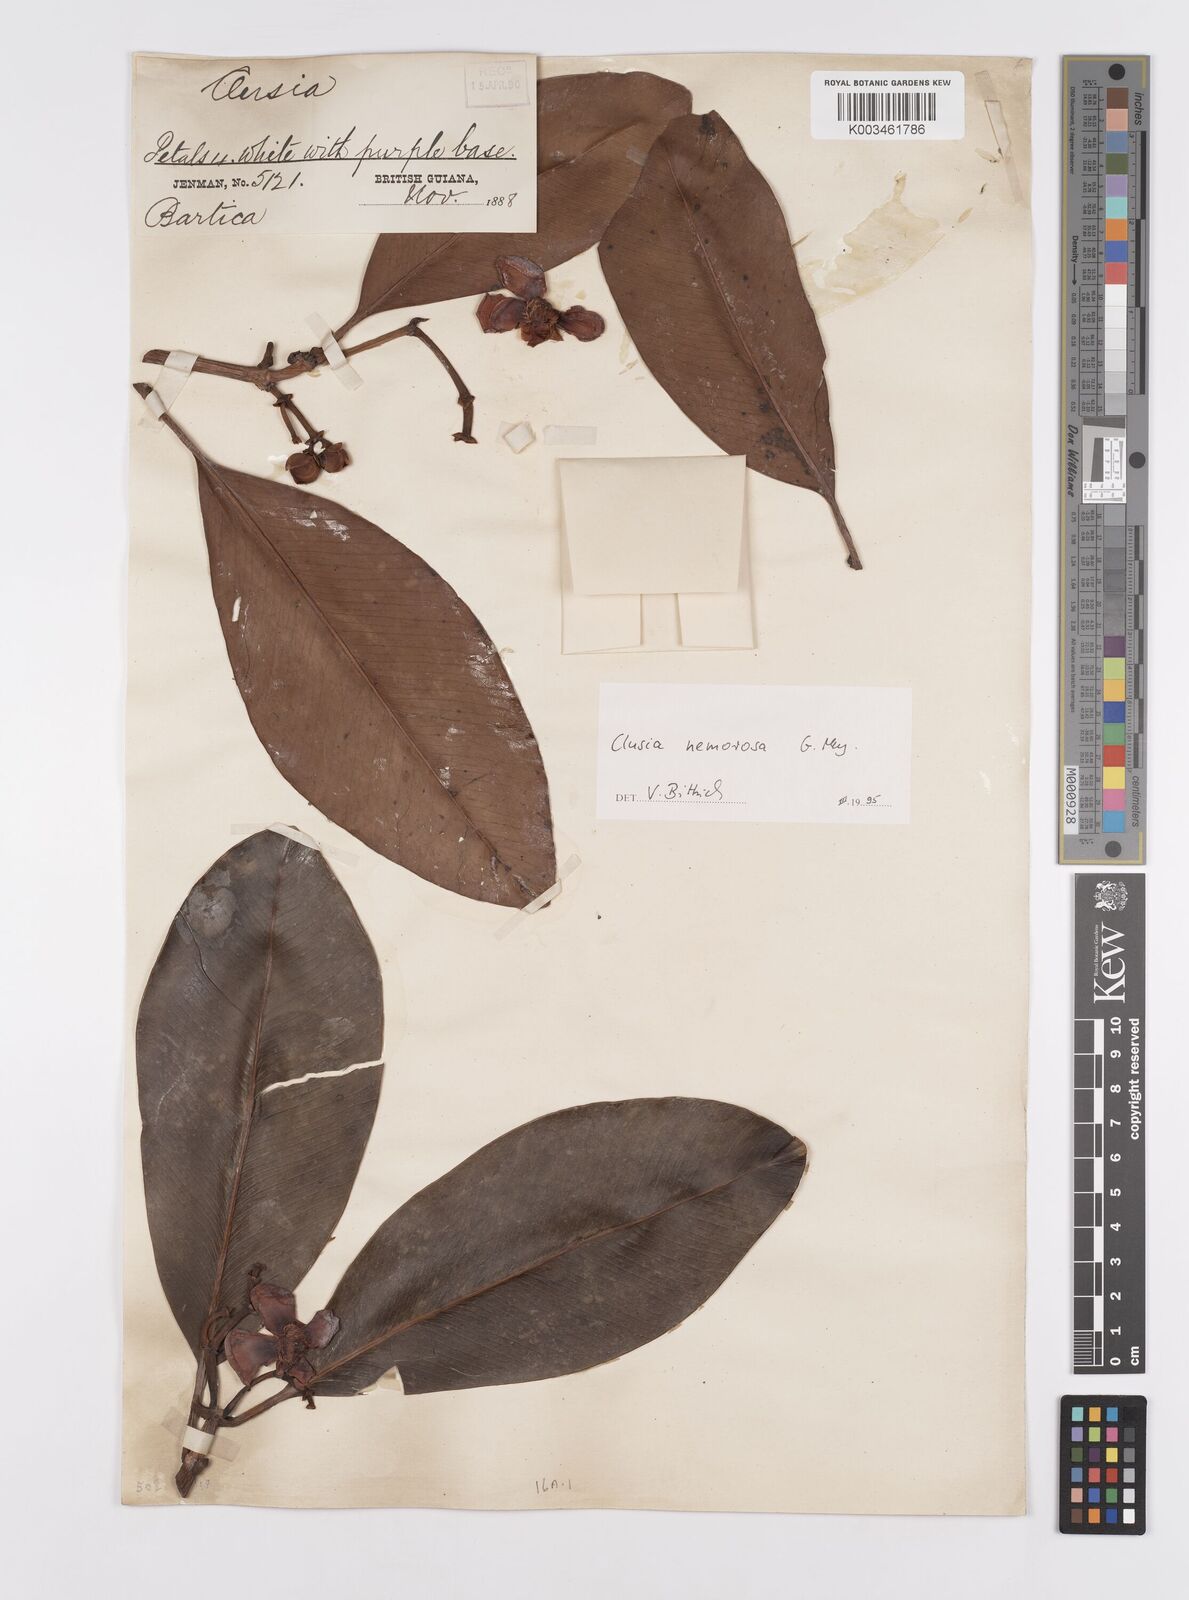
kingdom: Plantae
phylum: Tracheophyta
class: Magnoliopsida
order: Malpighiales
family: Clusiaceae
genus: Clusia
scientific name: Clusia nemorosa
